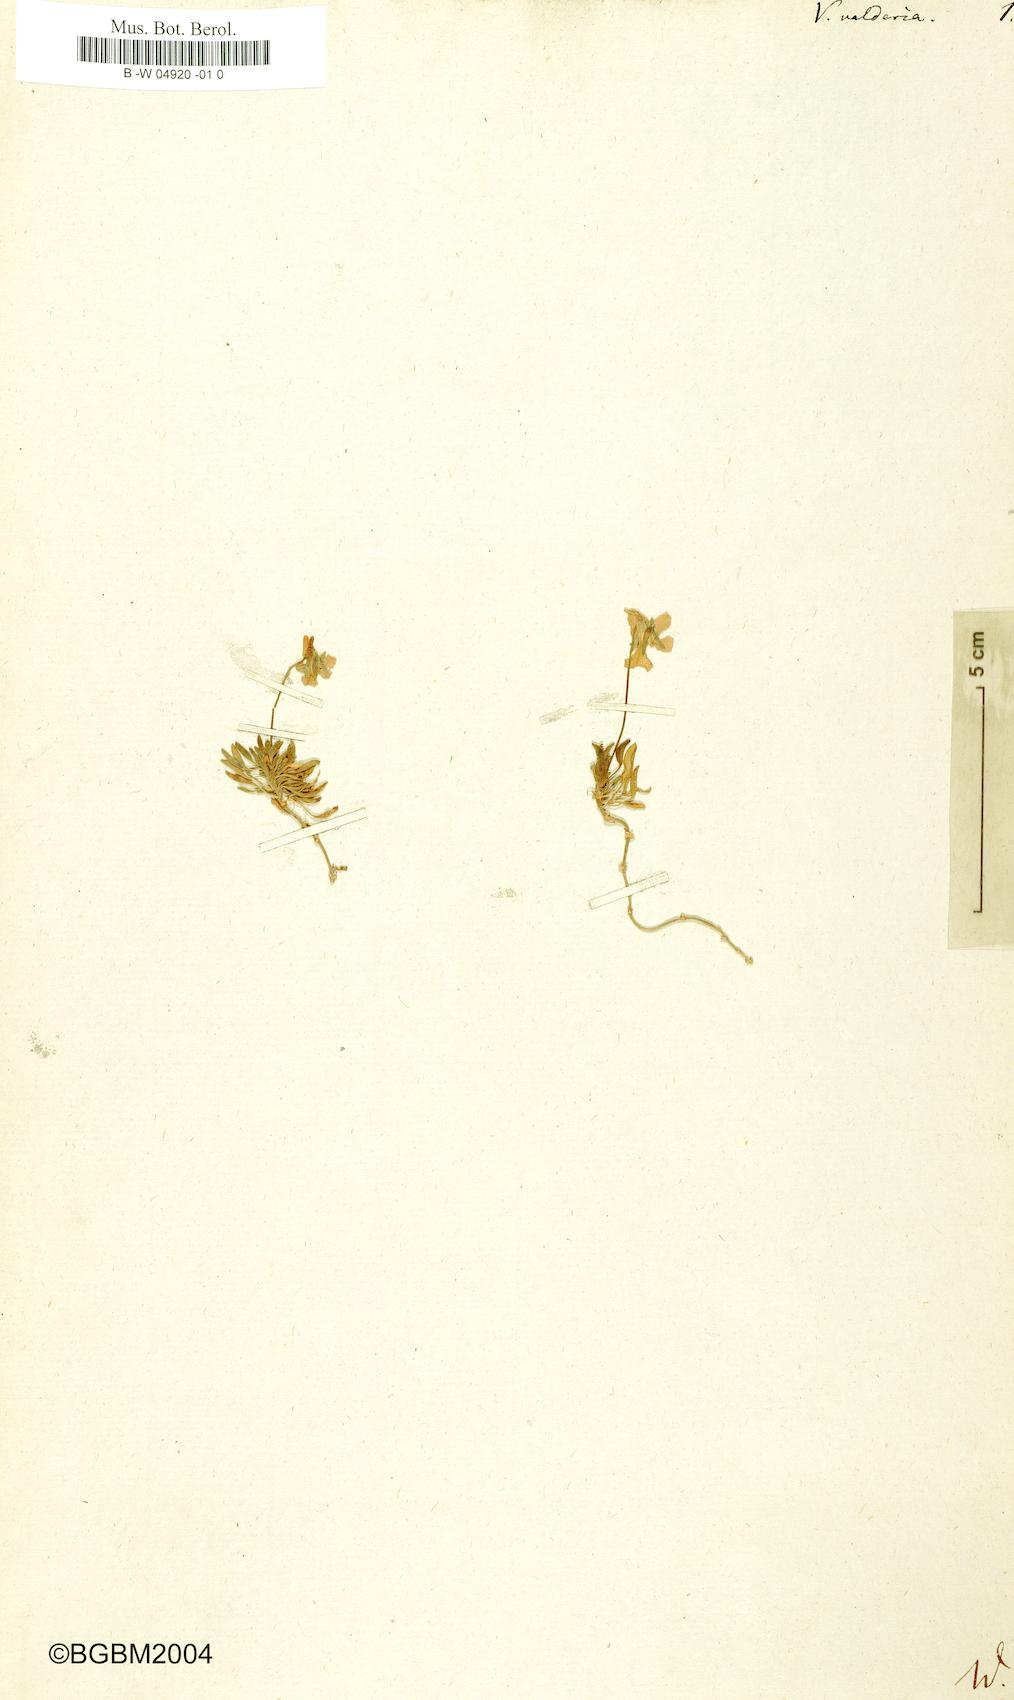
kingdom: Plantae
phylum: Tracheophyta
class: Magnoliopsida
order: Malpighiales
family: Violaceae
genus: Viola
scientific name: Viola valderia
